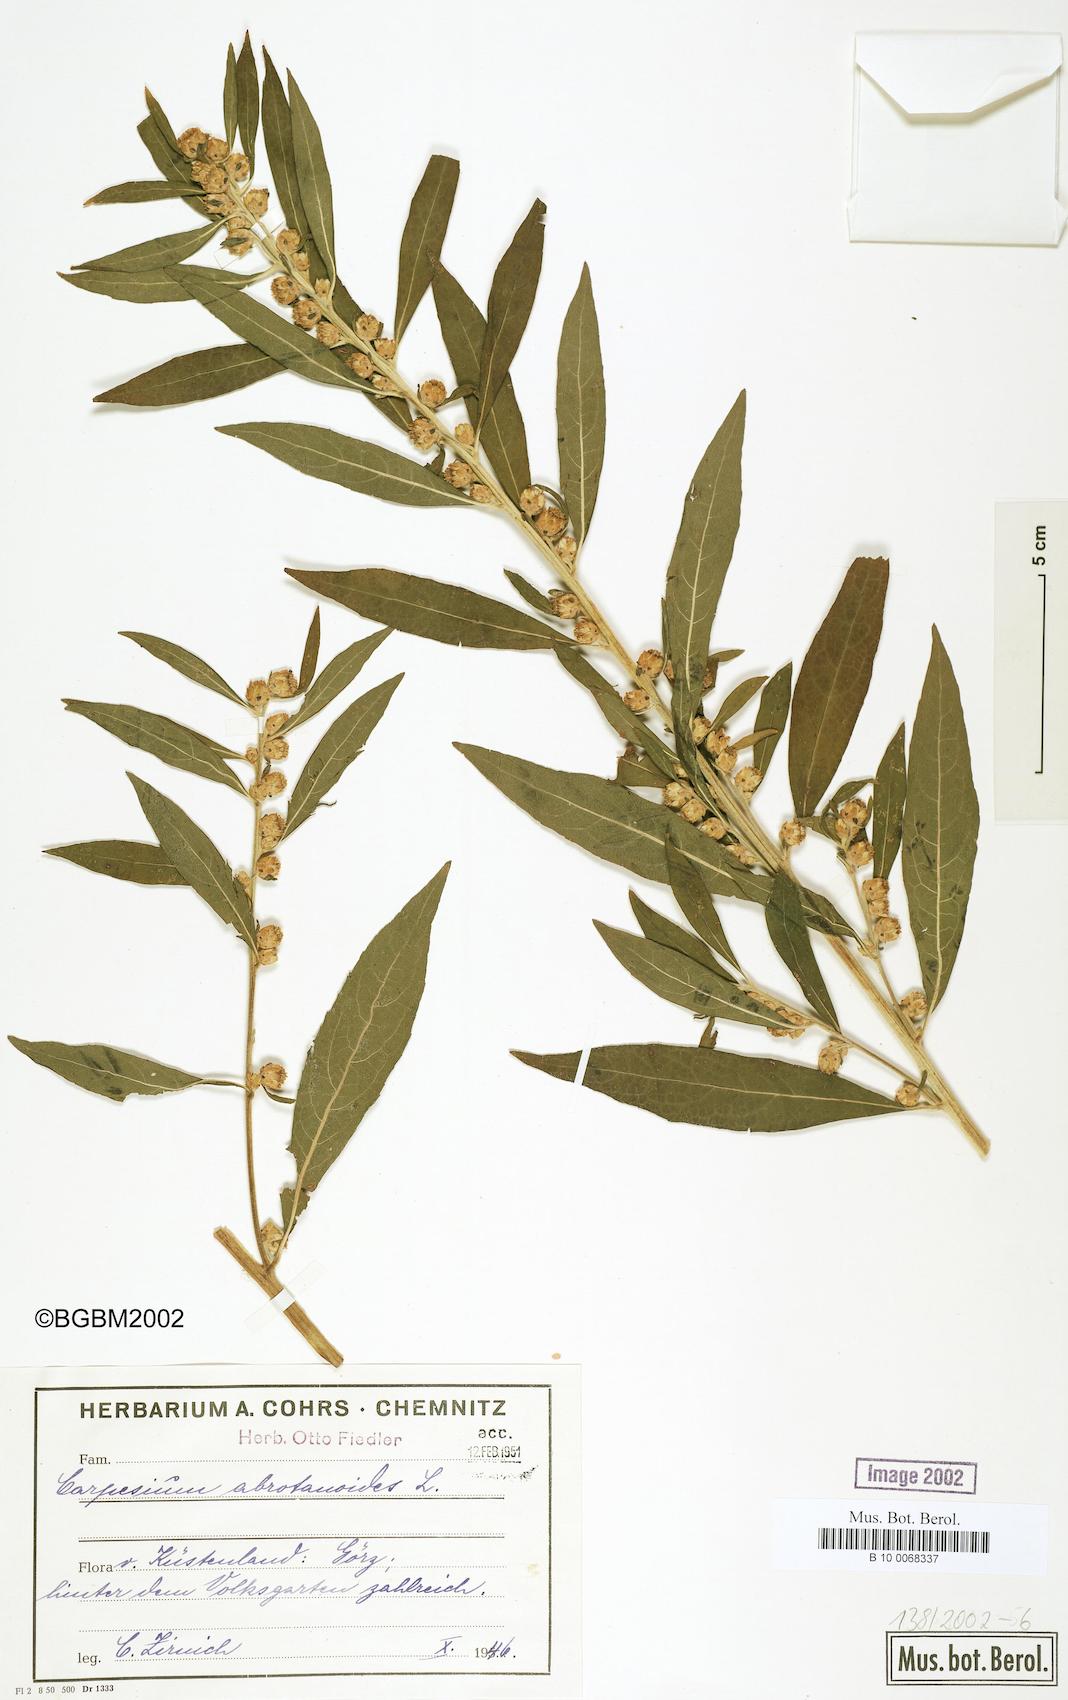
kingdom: Plantae
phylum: Tracheophyta
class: Magnoliopsida
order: Asterales
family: Asteraceae
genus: Carpesium
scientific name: Carpesium abrotanoides
